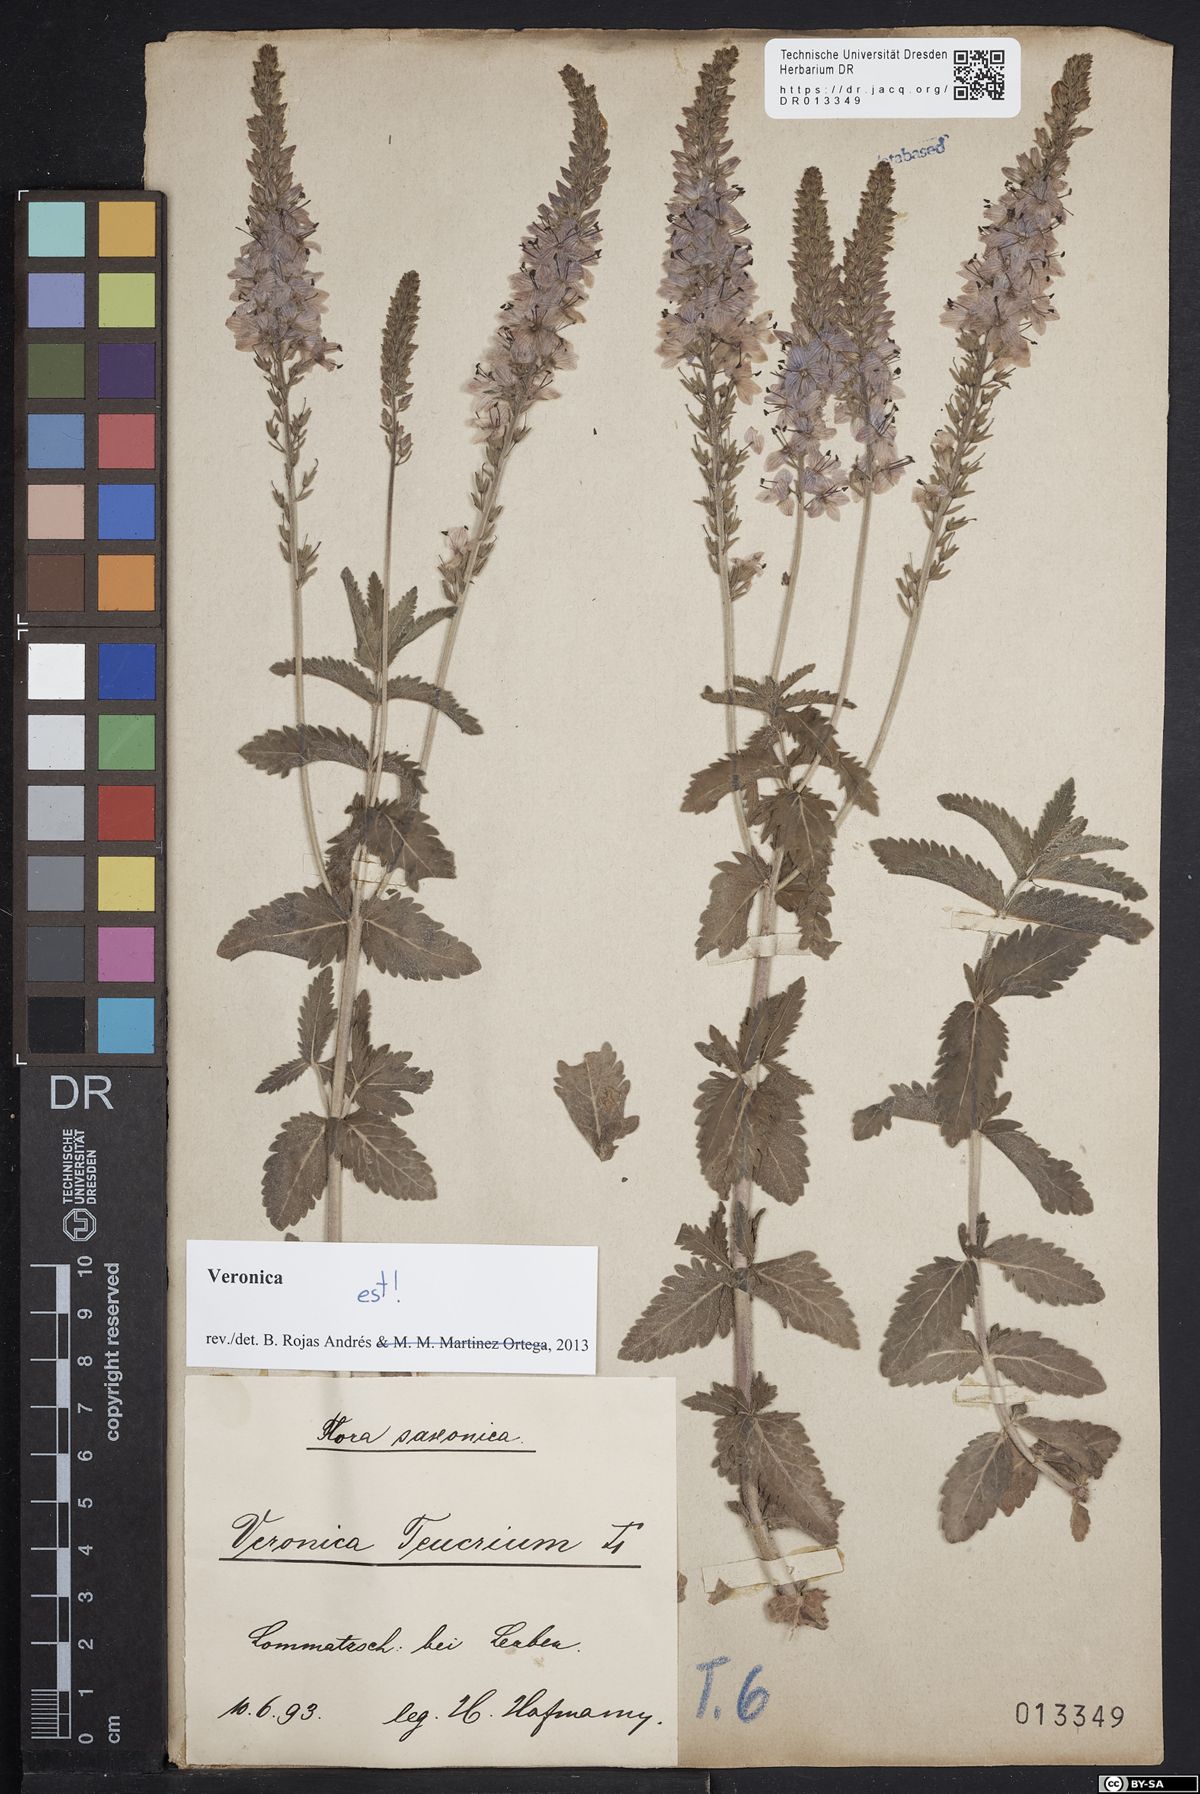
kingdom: Plantae
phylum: Tracheophyta
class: Magnoliopsida
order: Lamiales
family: Plantaginaceae
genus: Veronica
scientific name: Veronica teucrium
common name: Large speedwell
